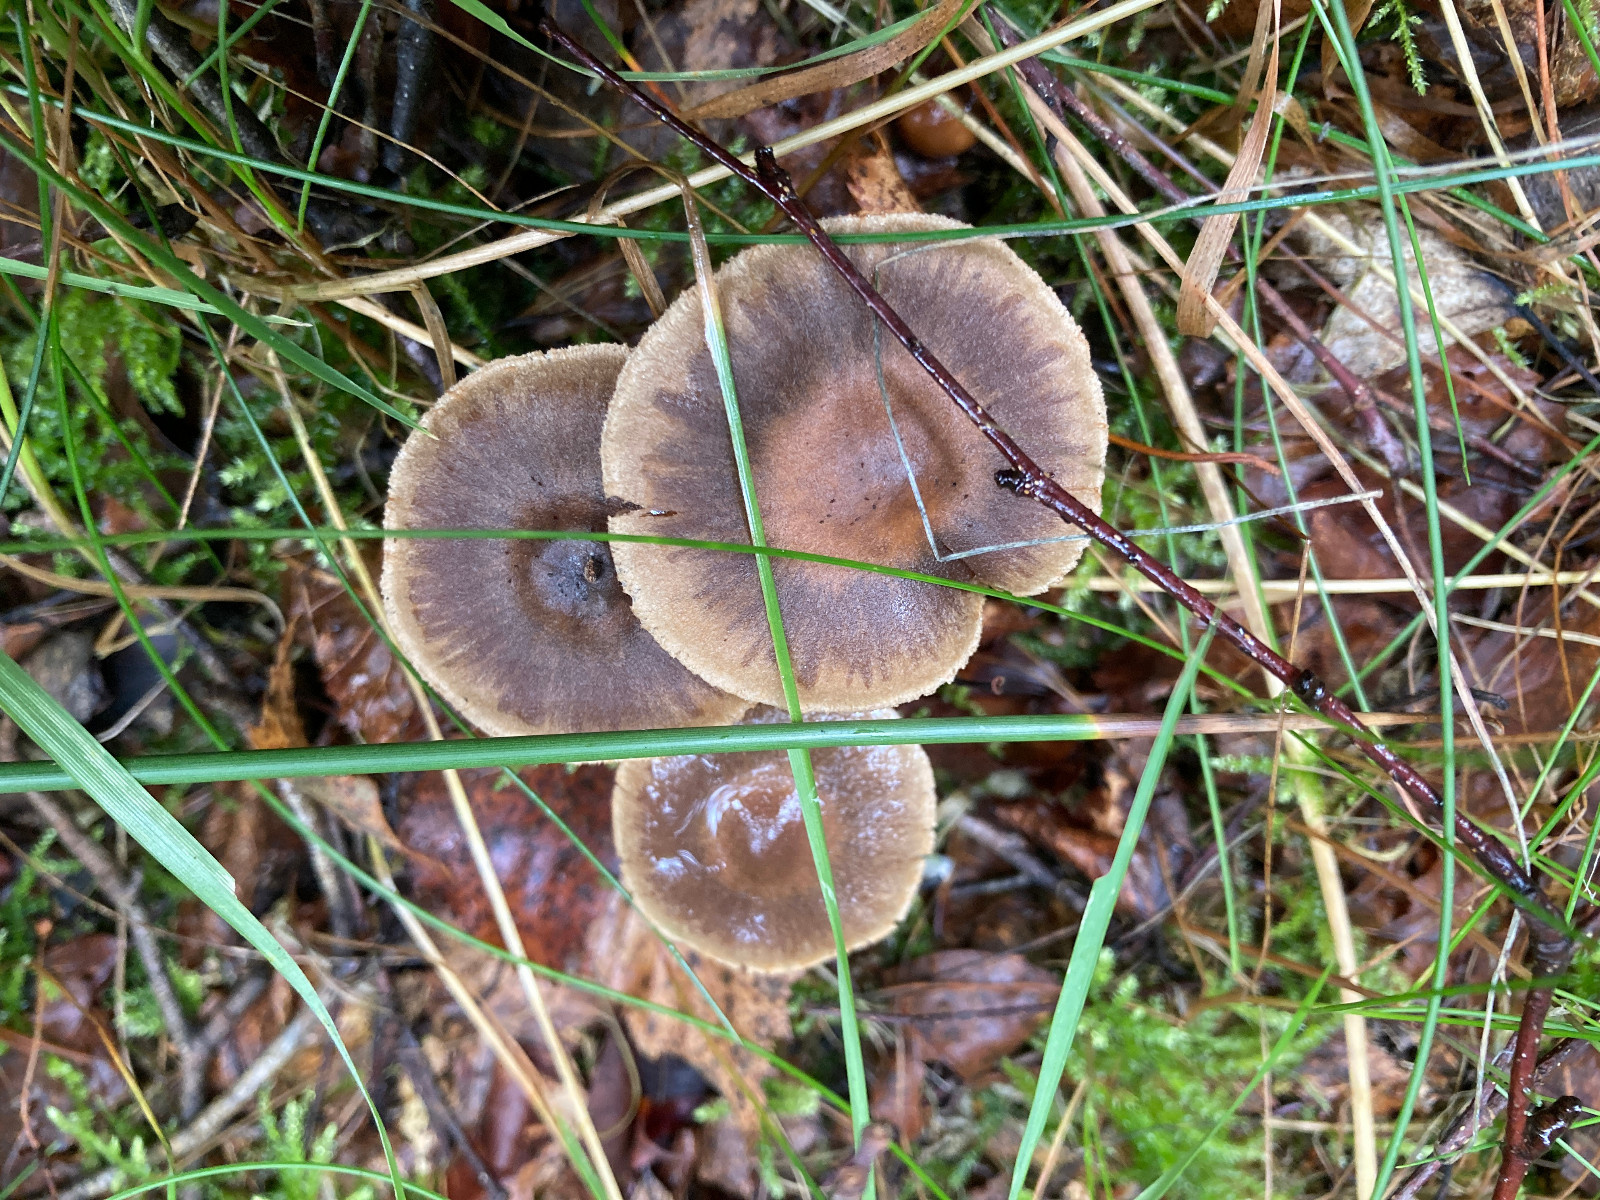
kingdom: Fungi
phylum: Basidiomycota
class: Agaricomycetes
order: Agaricales
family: Cortinariaceae
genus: Cortinarius
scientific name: Cortinarius raphanoides
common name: ræddike-slørhat
